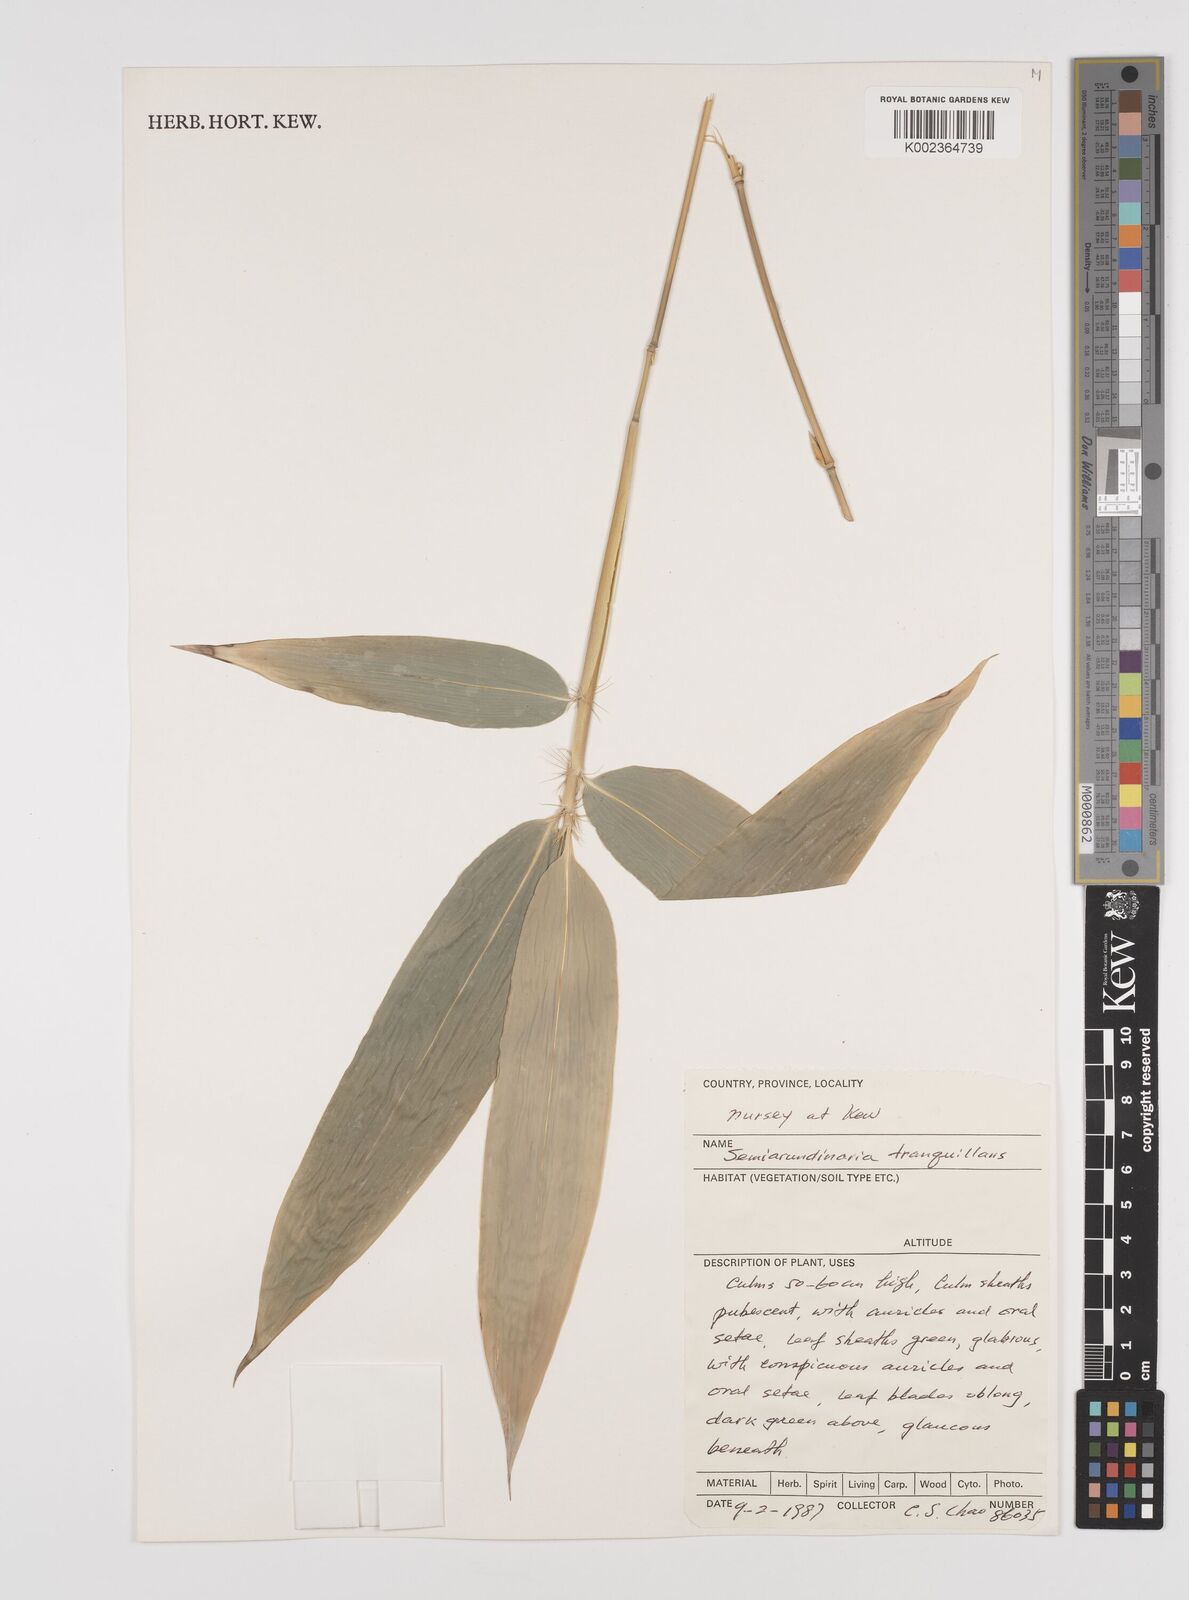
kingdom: Plantae
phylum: Tracheophyta
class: Liliopsida
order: Poales
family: Poaceae
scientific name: Poaceae
